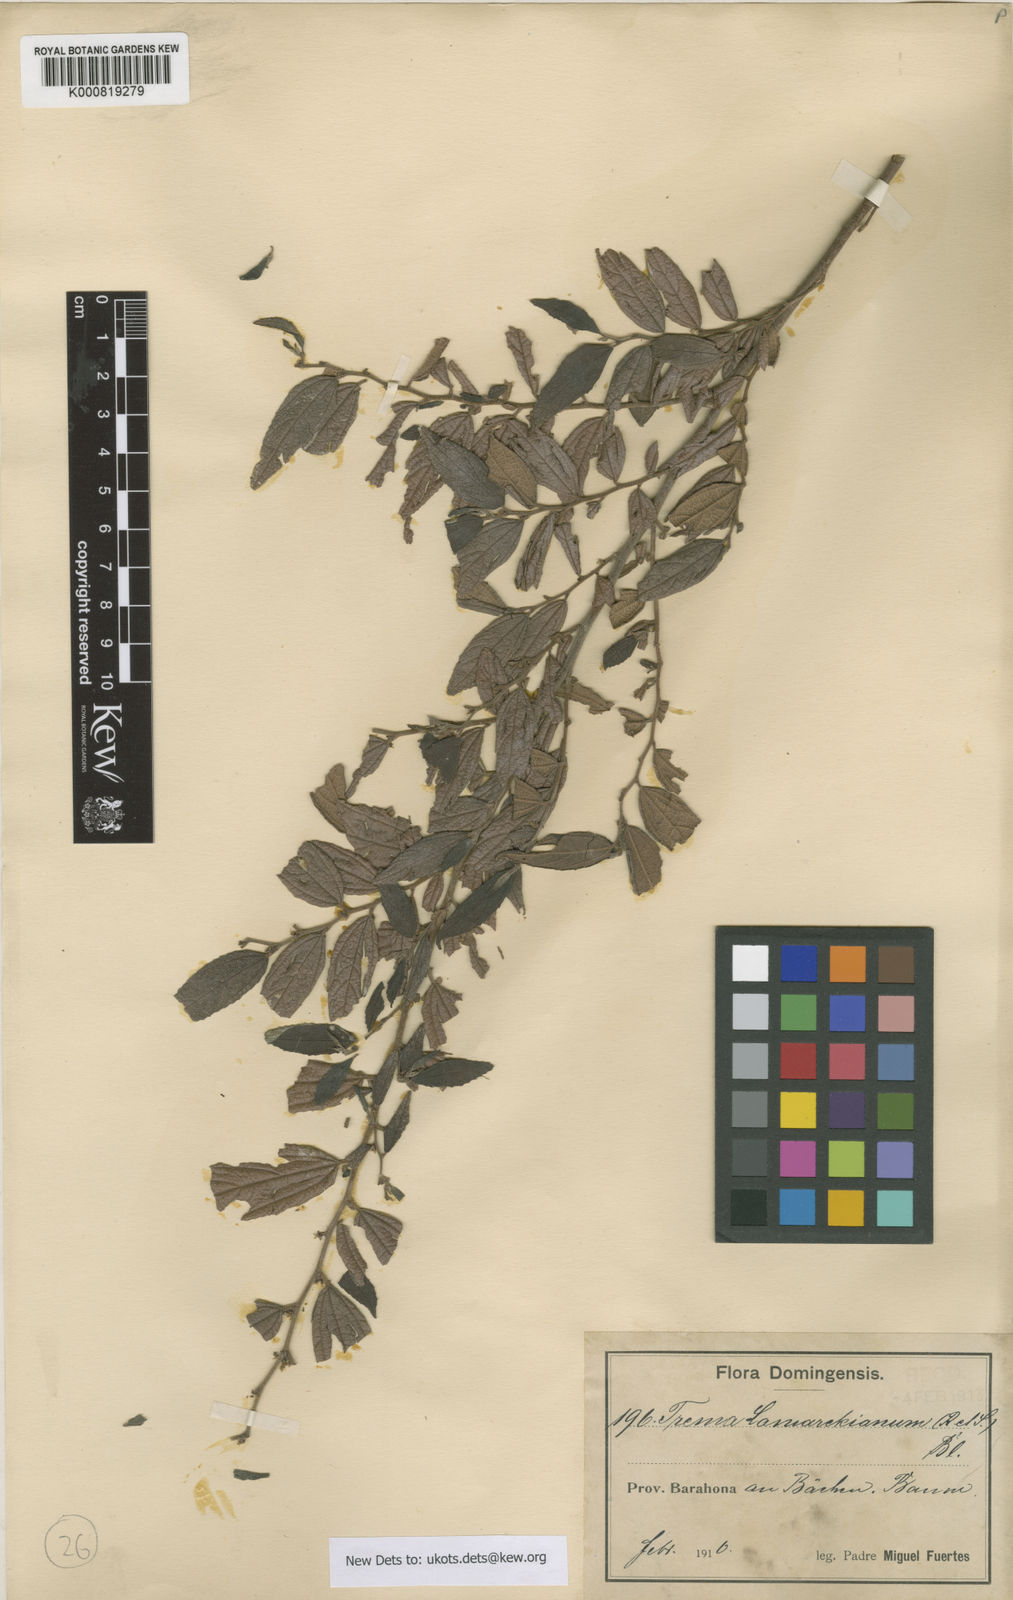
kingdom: Plantae
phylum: Tracheophyta
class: Magnoliopsida
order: Rosales
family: Cannabaceae
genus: Trema
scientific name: Trema lamarckianum
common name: Lamarck's trema
